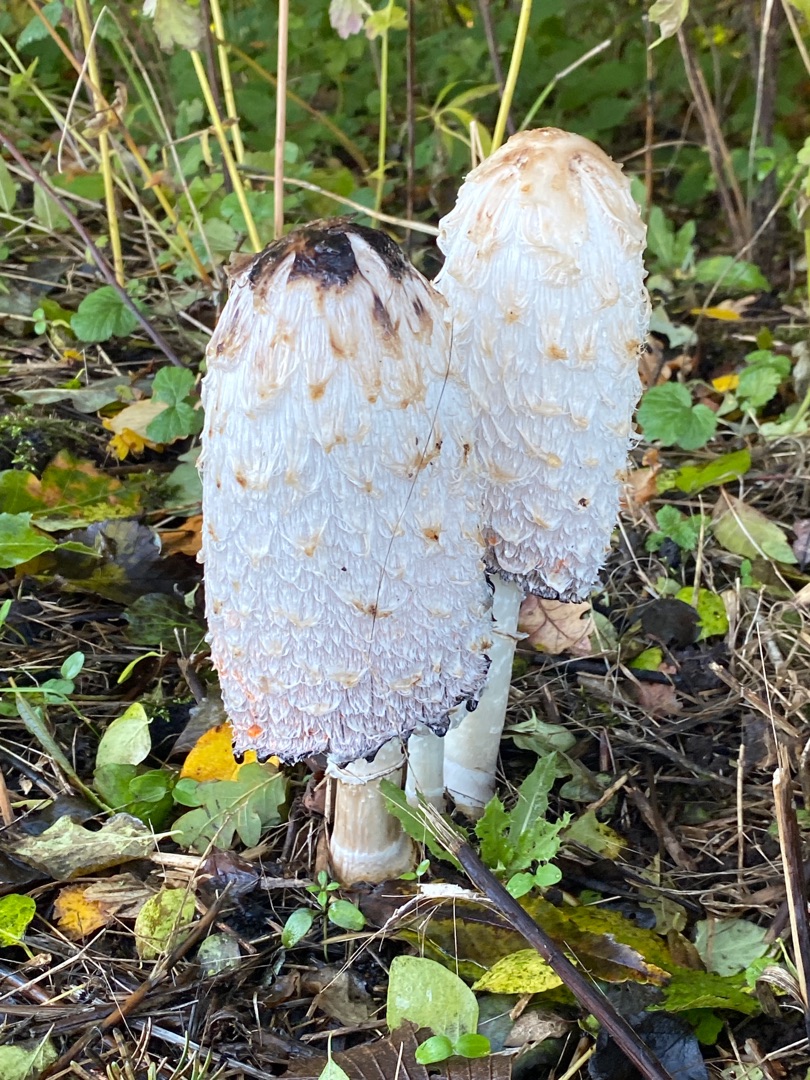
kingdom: Fungi
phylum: Basidiomycota
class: Agaricomycetes
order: Agaricales
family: Agaricaceae
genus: Coprinus
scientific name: Coprinus comatus
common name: Stor parykhat
